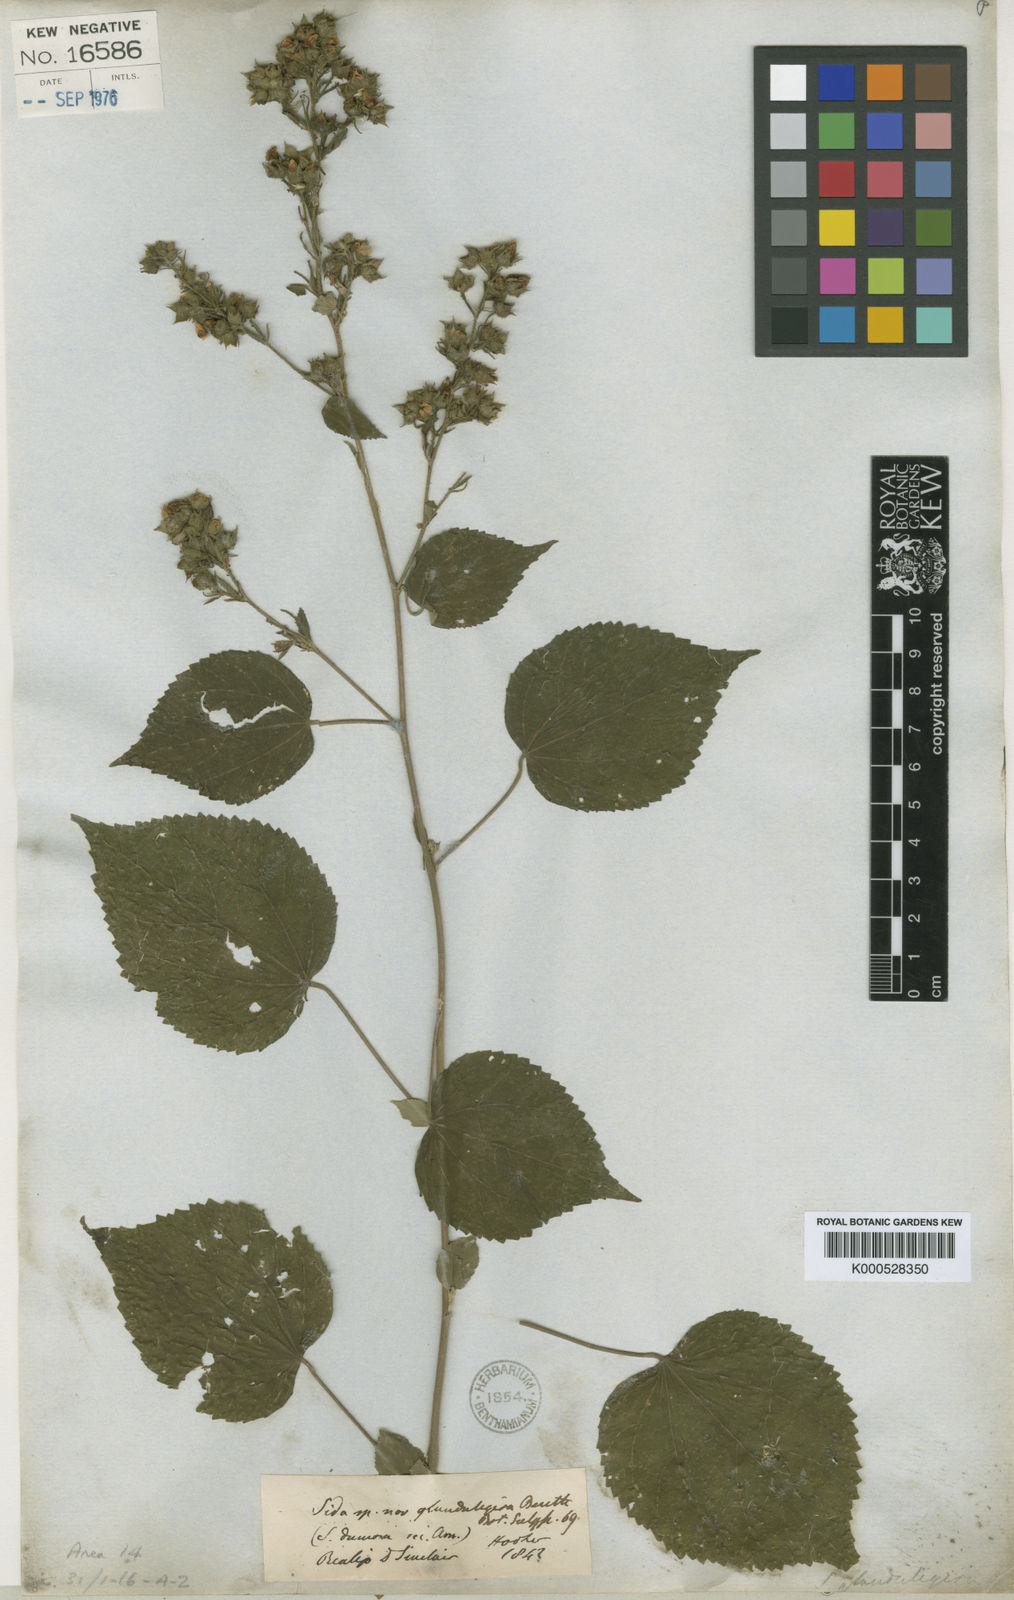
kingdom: Plantae
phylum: Tracheophyta
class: Magnoliopsida
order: Malvales
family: Malvaceae
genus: Sida
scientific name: Sida
